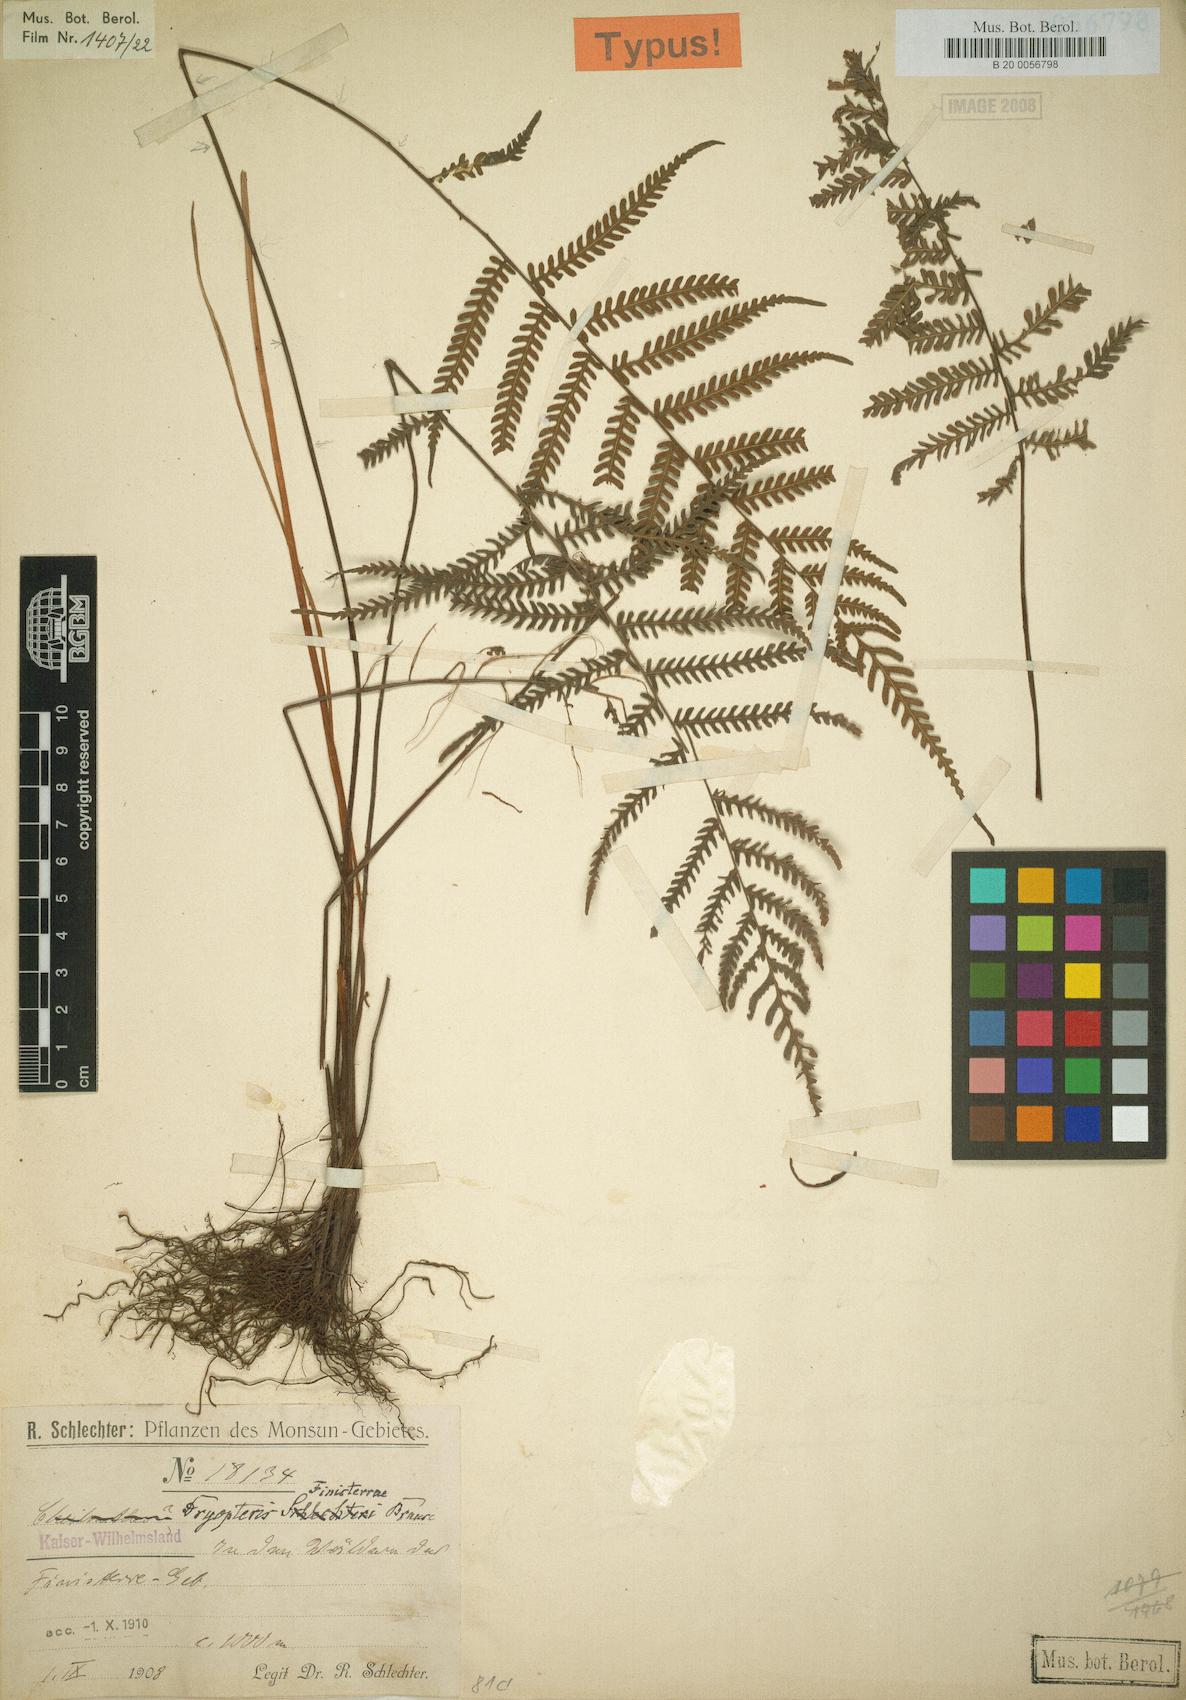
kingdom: Plantae
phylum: Tracheophyta
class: Polypodiopsida
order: Polypodiales
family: Thelypteridaceae
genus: Plesioneuron
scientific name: Plesioneuron finisterrae
